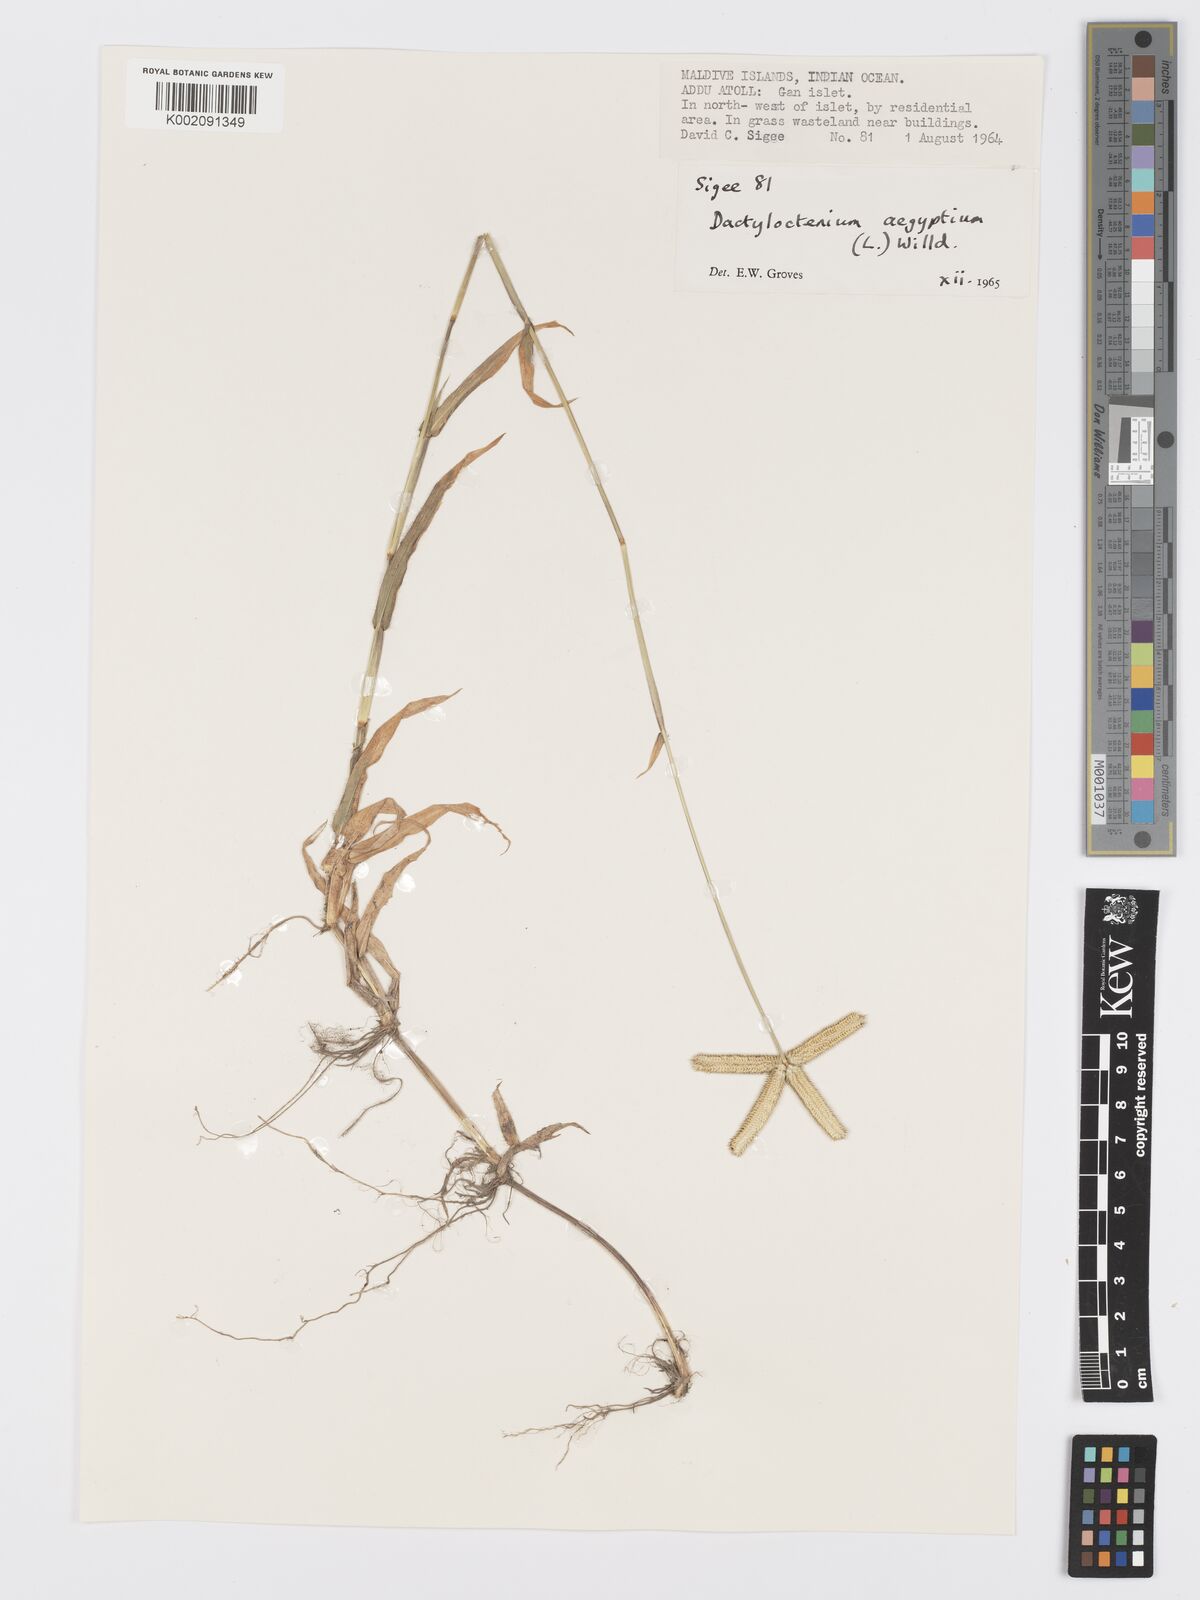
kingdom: Plantae
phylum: Tracheophyta
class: Liliopsida
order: Poales
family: Poaceae
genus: Dactyloctenium
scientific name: Dactyloctenium aegyptium
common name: Egyptian grass
